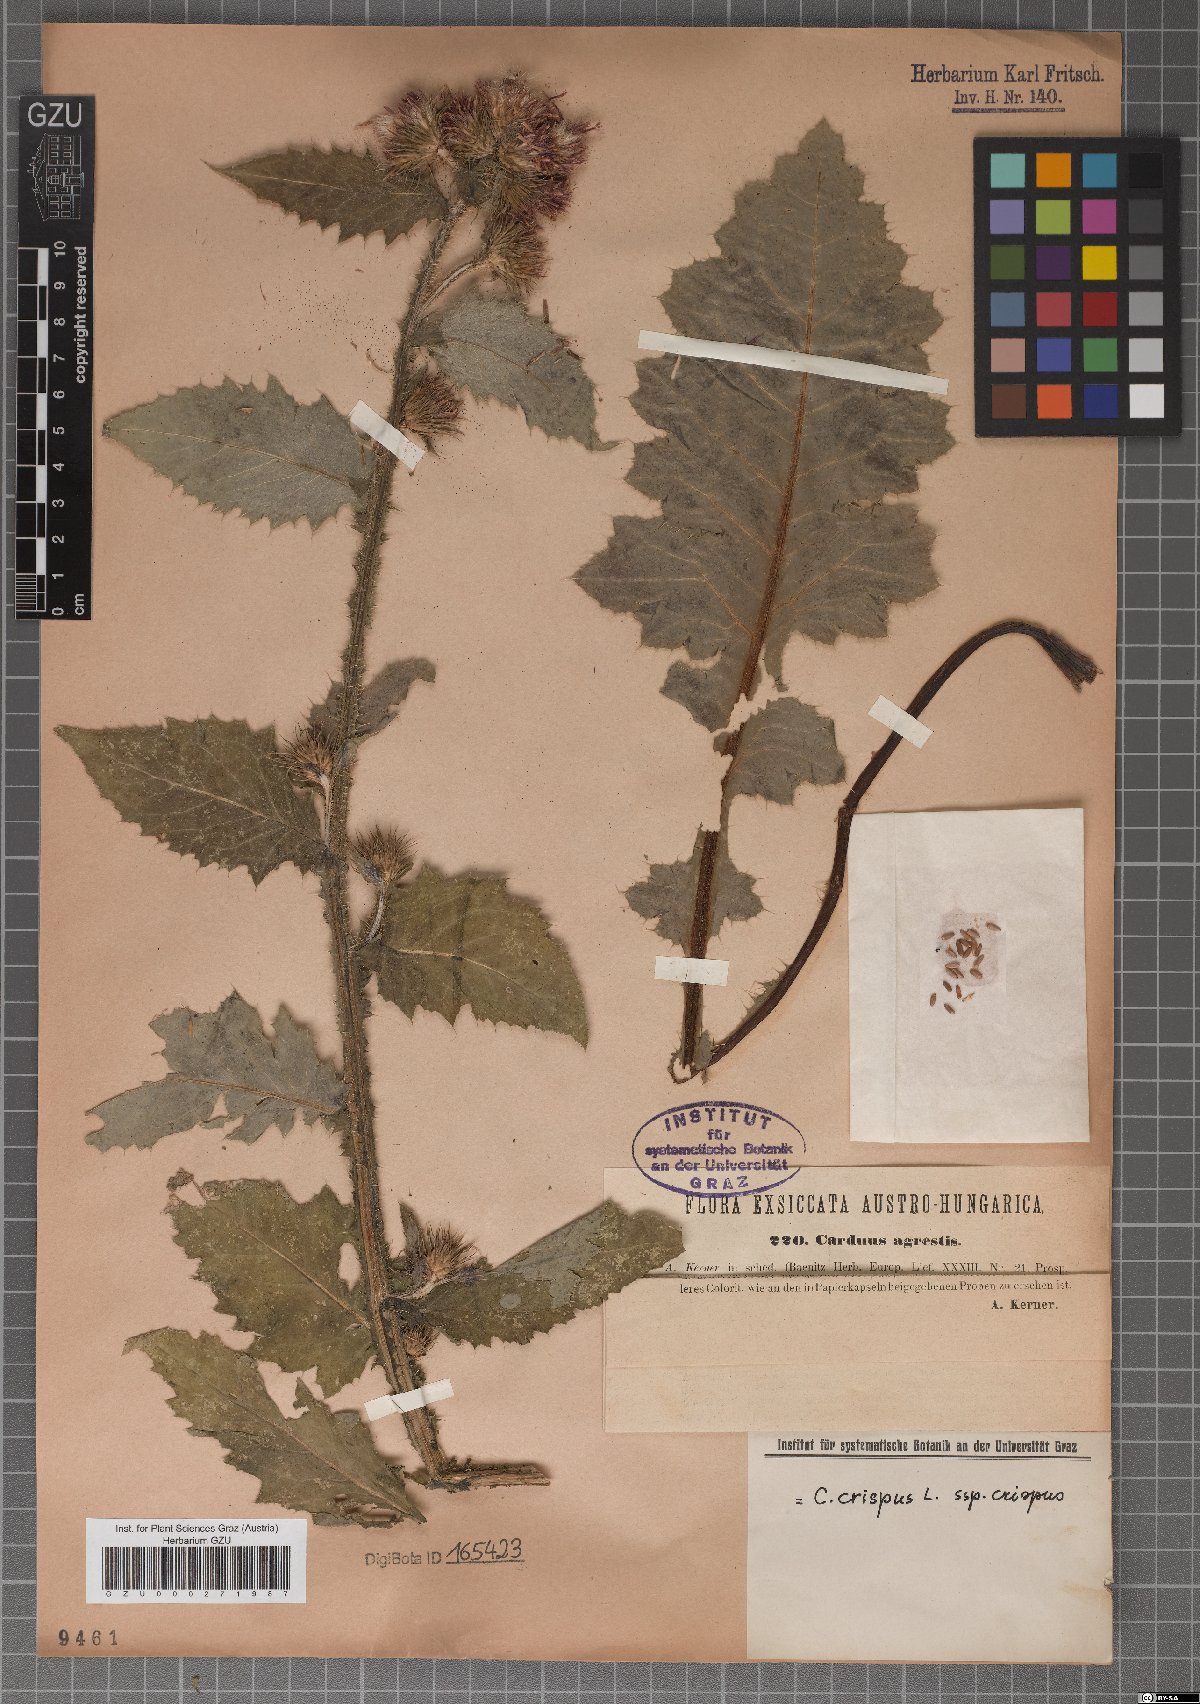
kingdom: Plantae
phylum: Tracheophyta
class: Magnoliopsida
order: Asterales
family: Asteraceae
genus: Carduus
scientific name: Carduus crispus
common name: Welted thistle
